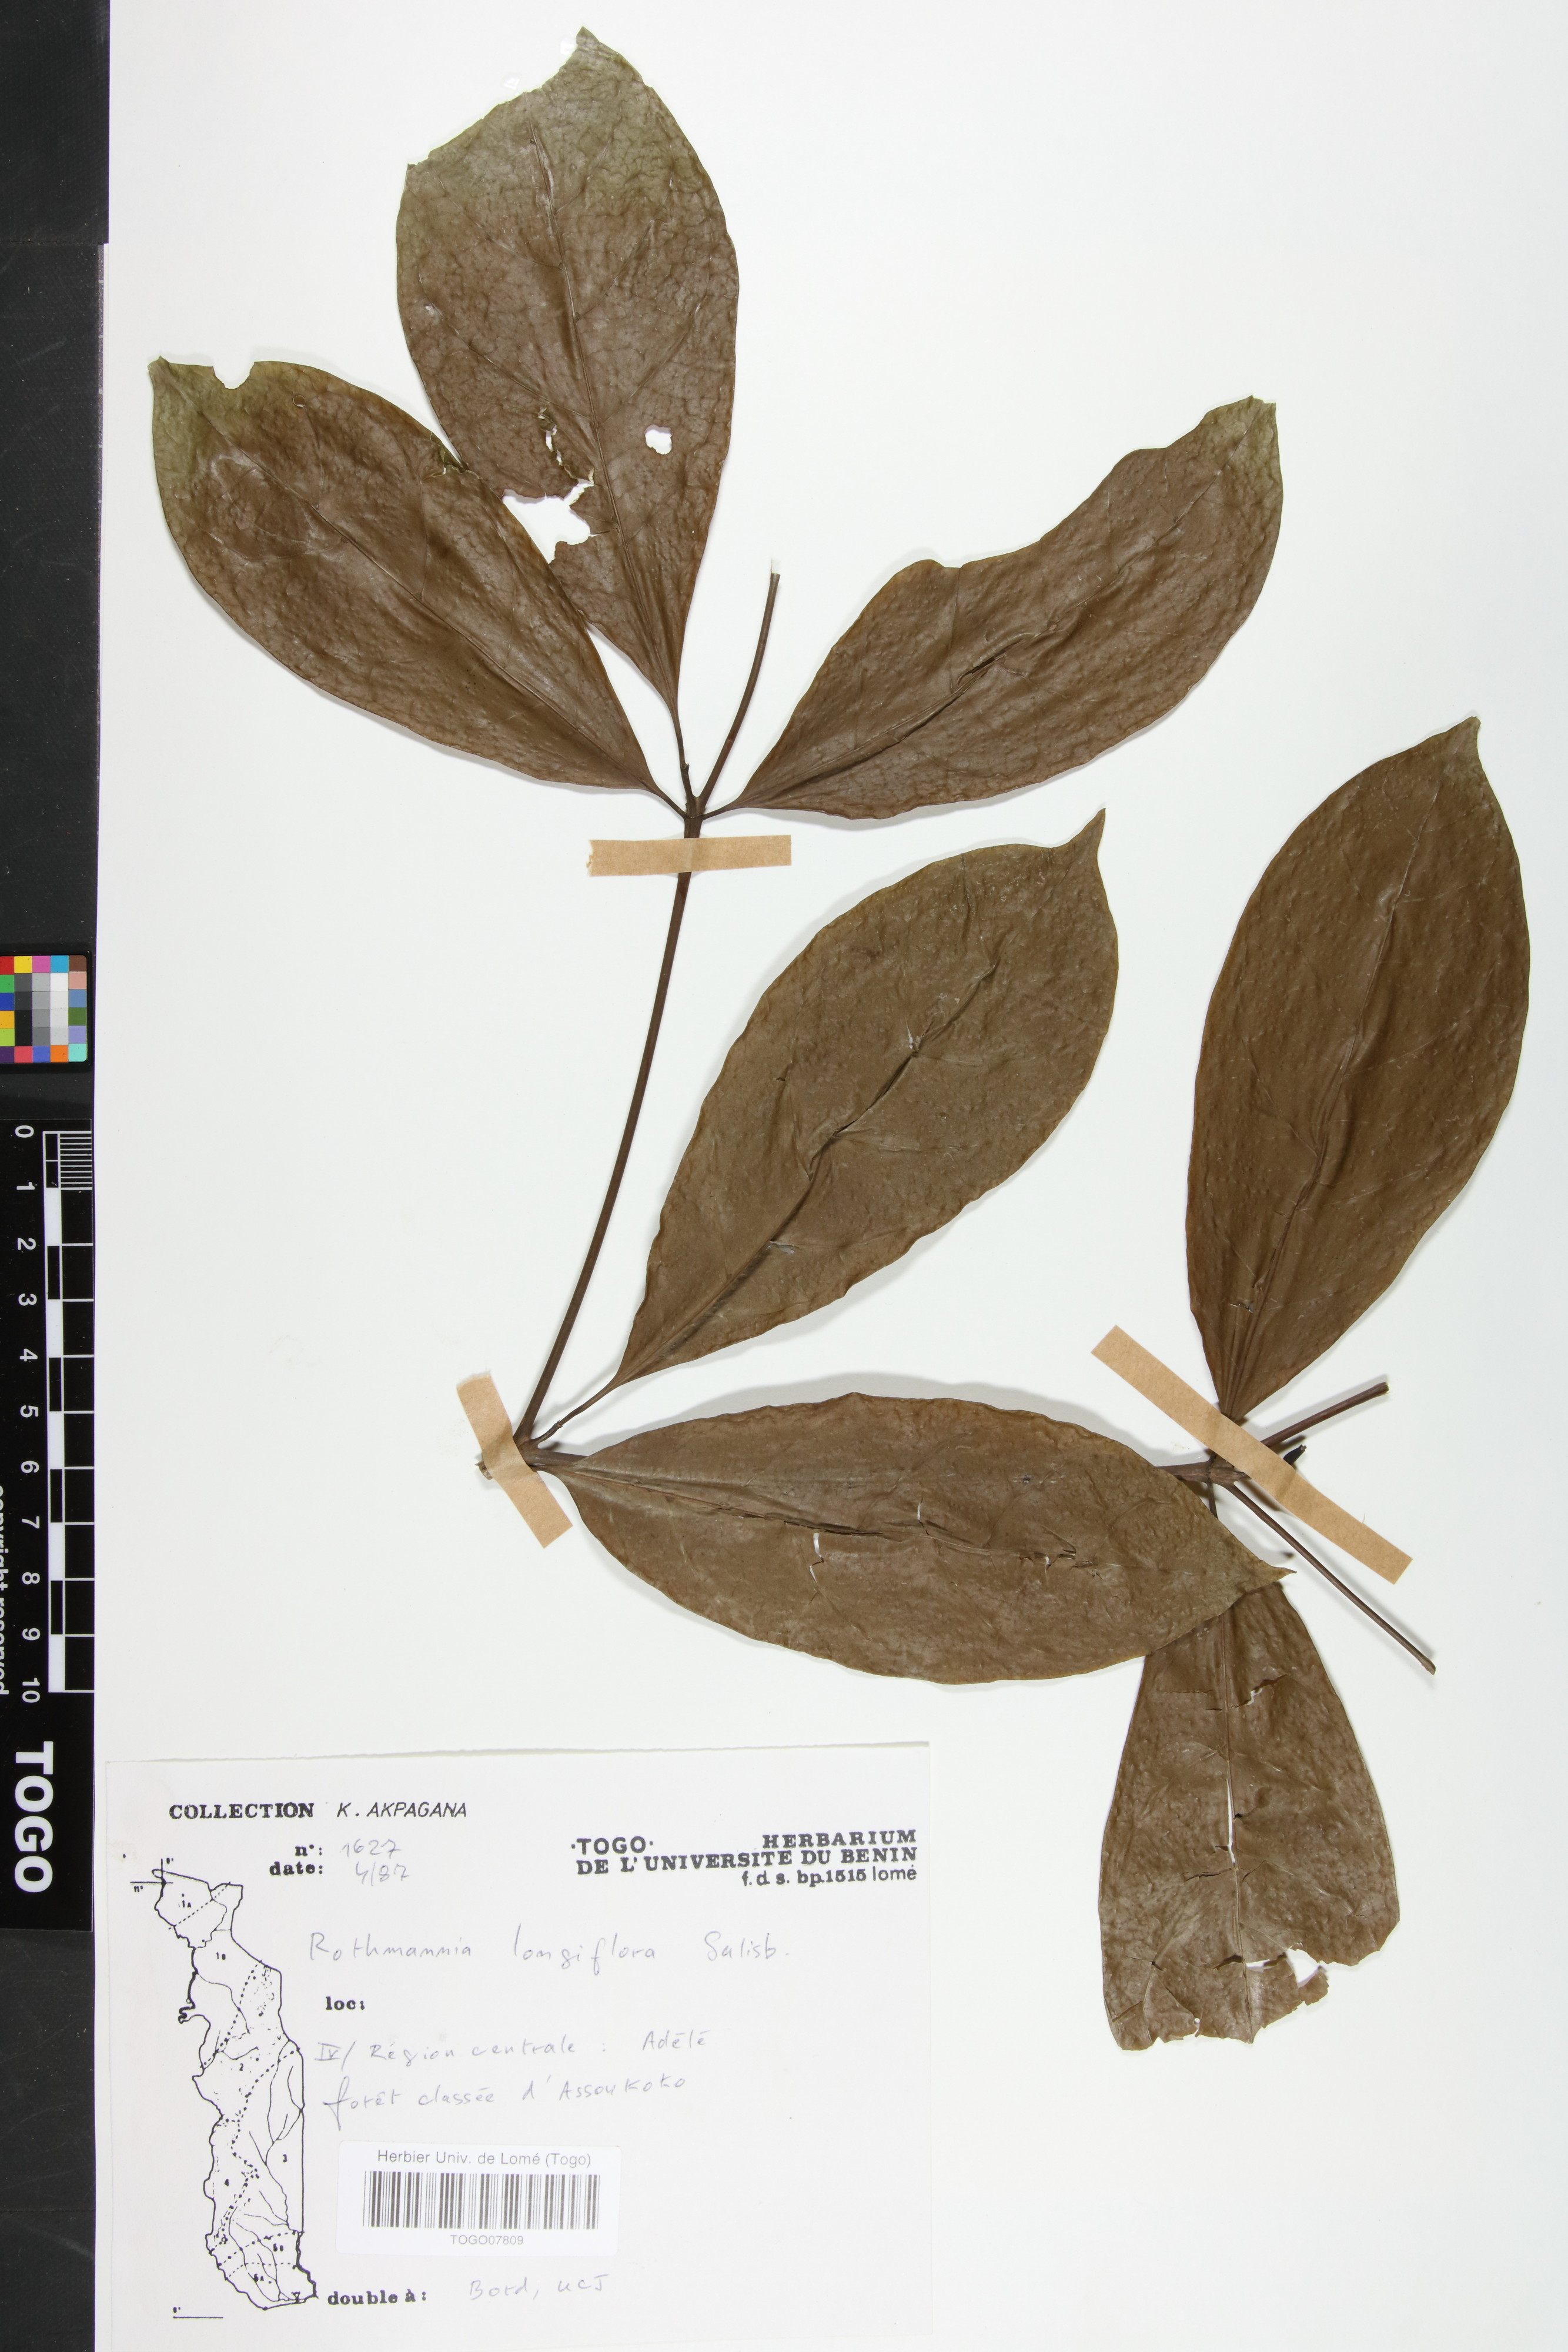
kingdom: Plantae
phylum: Tracheophyta
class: Magnoliopsida
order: Gentianales
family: Rubiaceae
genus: Rothmannia
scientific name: Rothmannia longiflora
